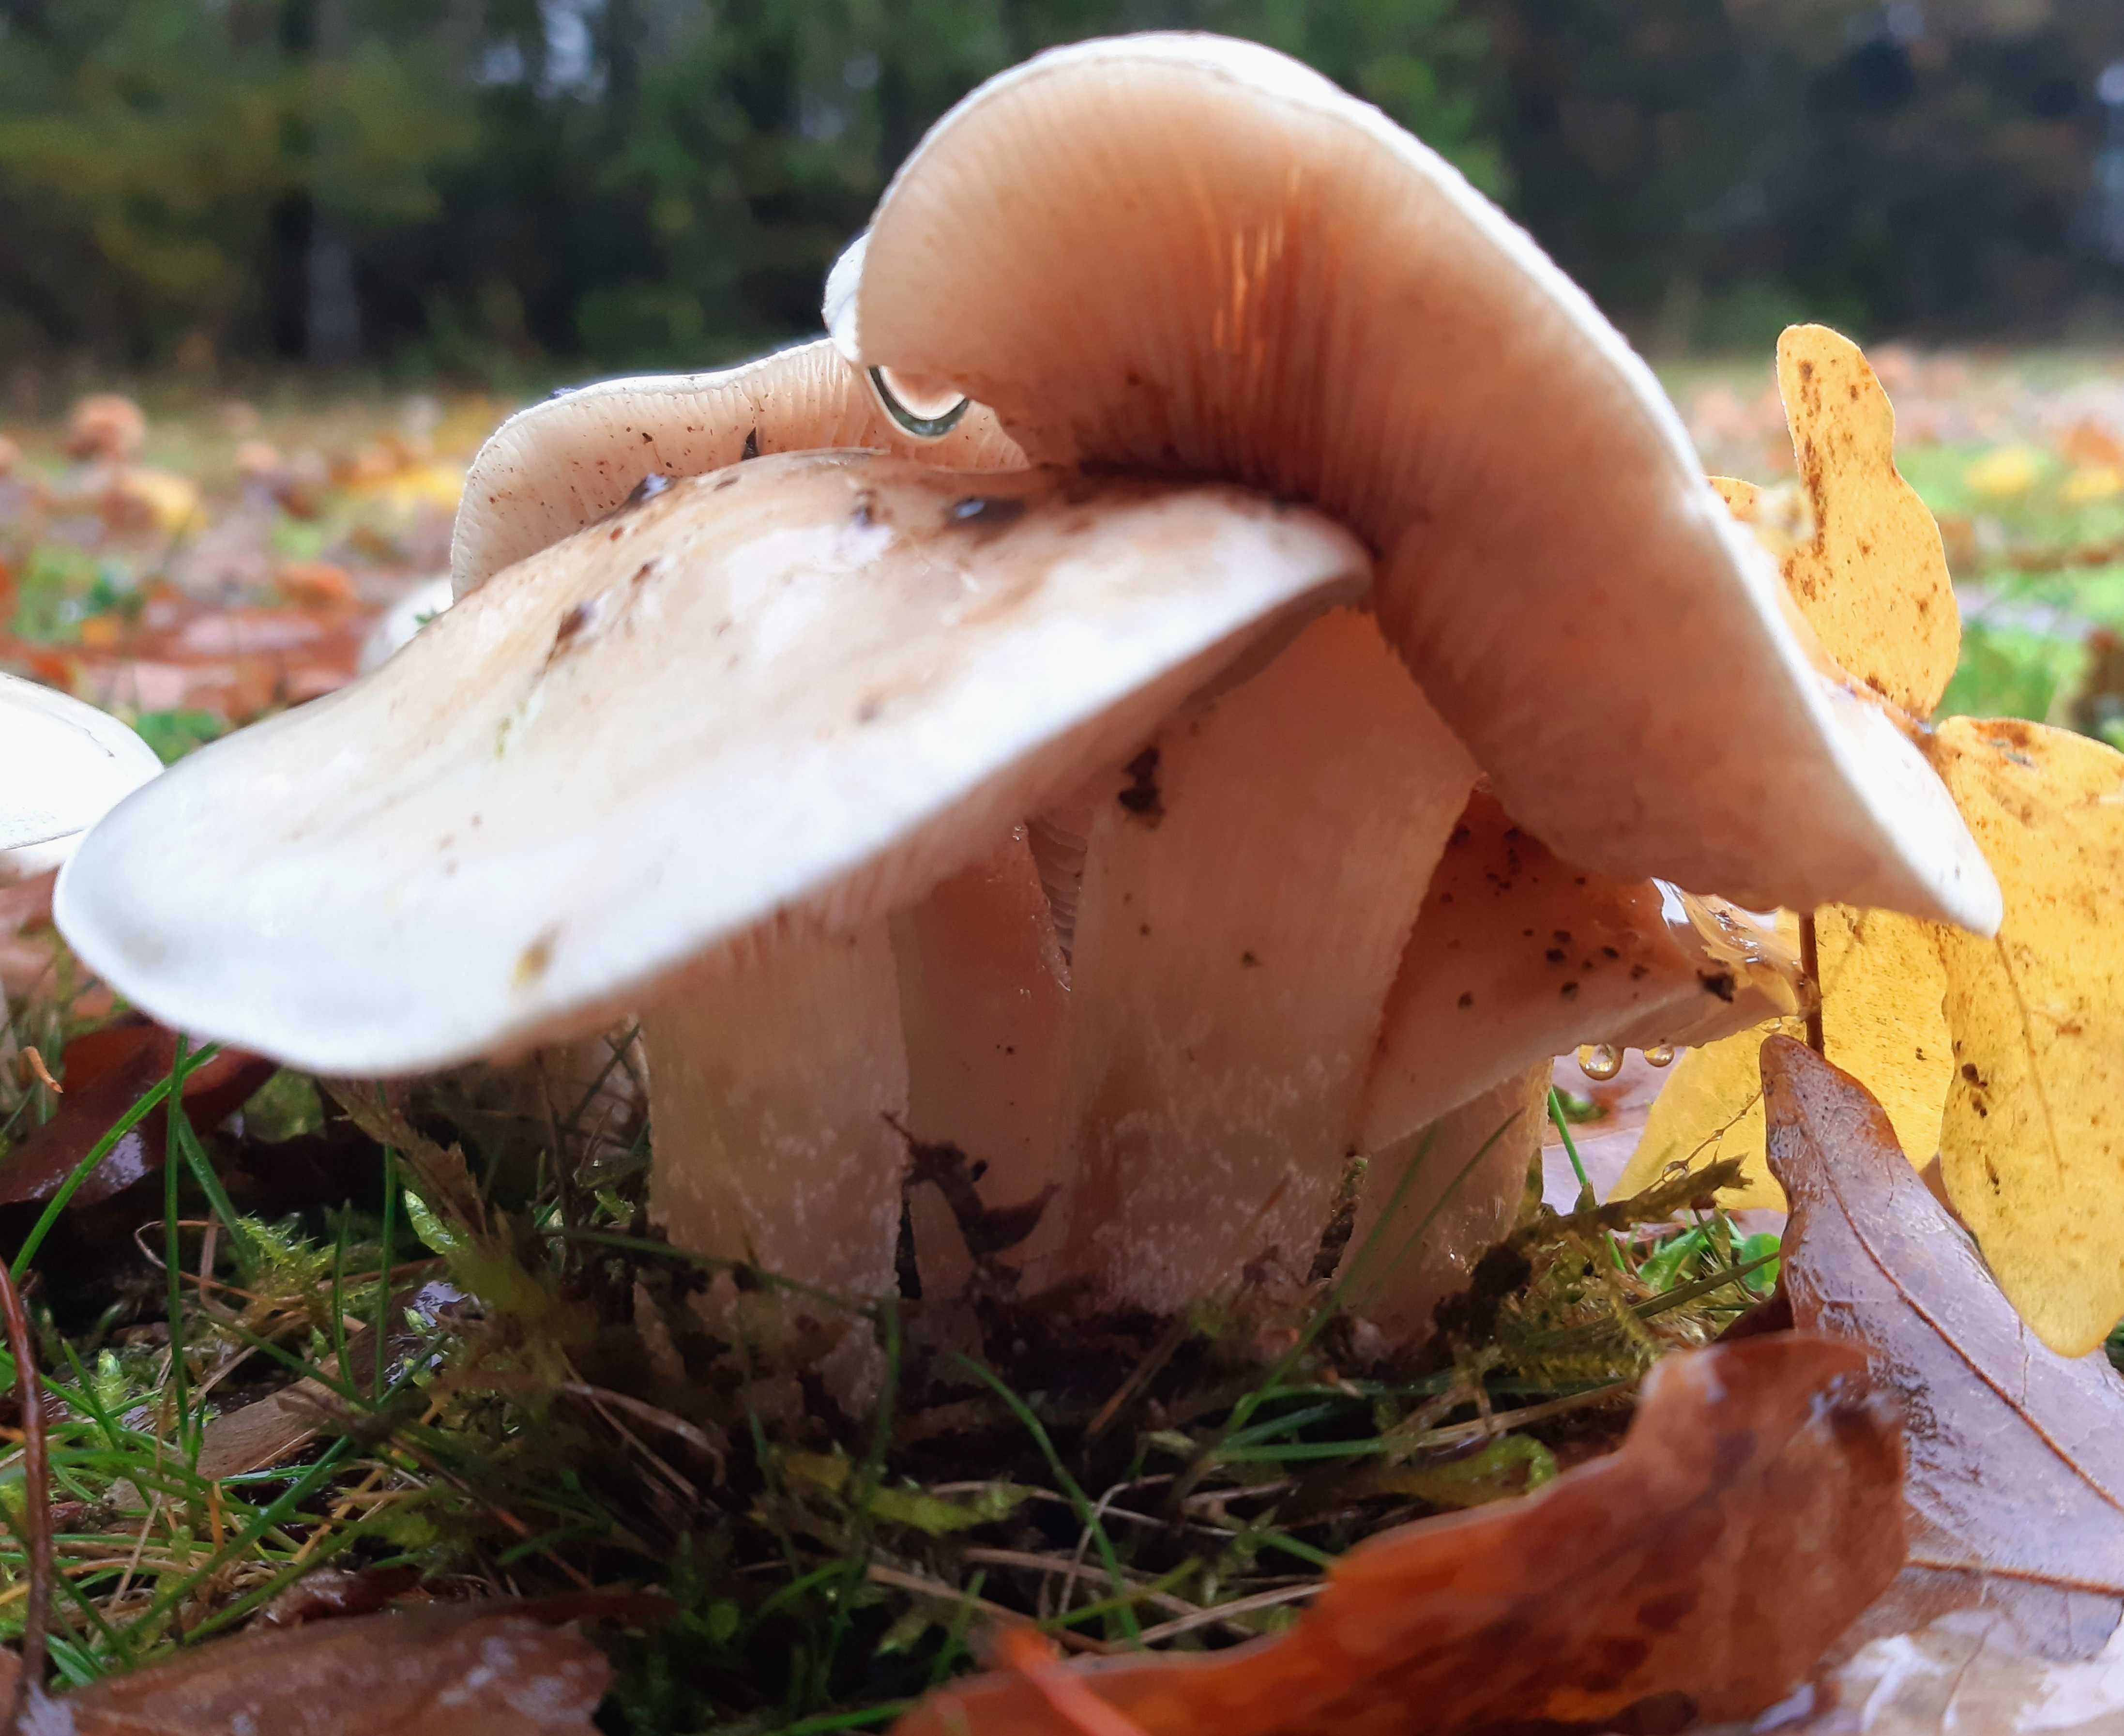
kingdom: Fungi
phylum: Basidiomycota
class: Agaricomycetes
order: Agaricales
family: Hymenogastraceae
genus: Hebeloma
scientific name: Hebeloma
